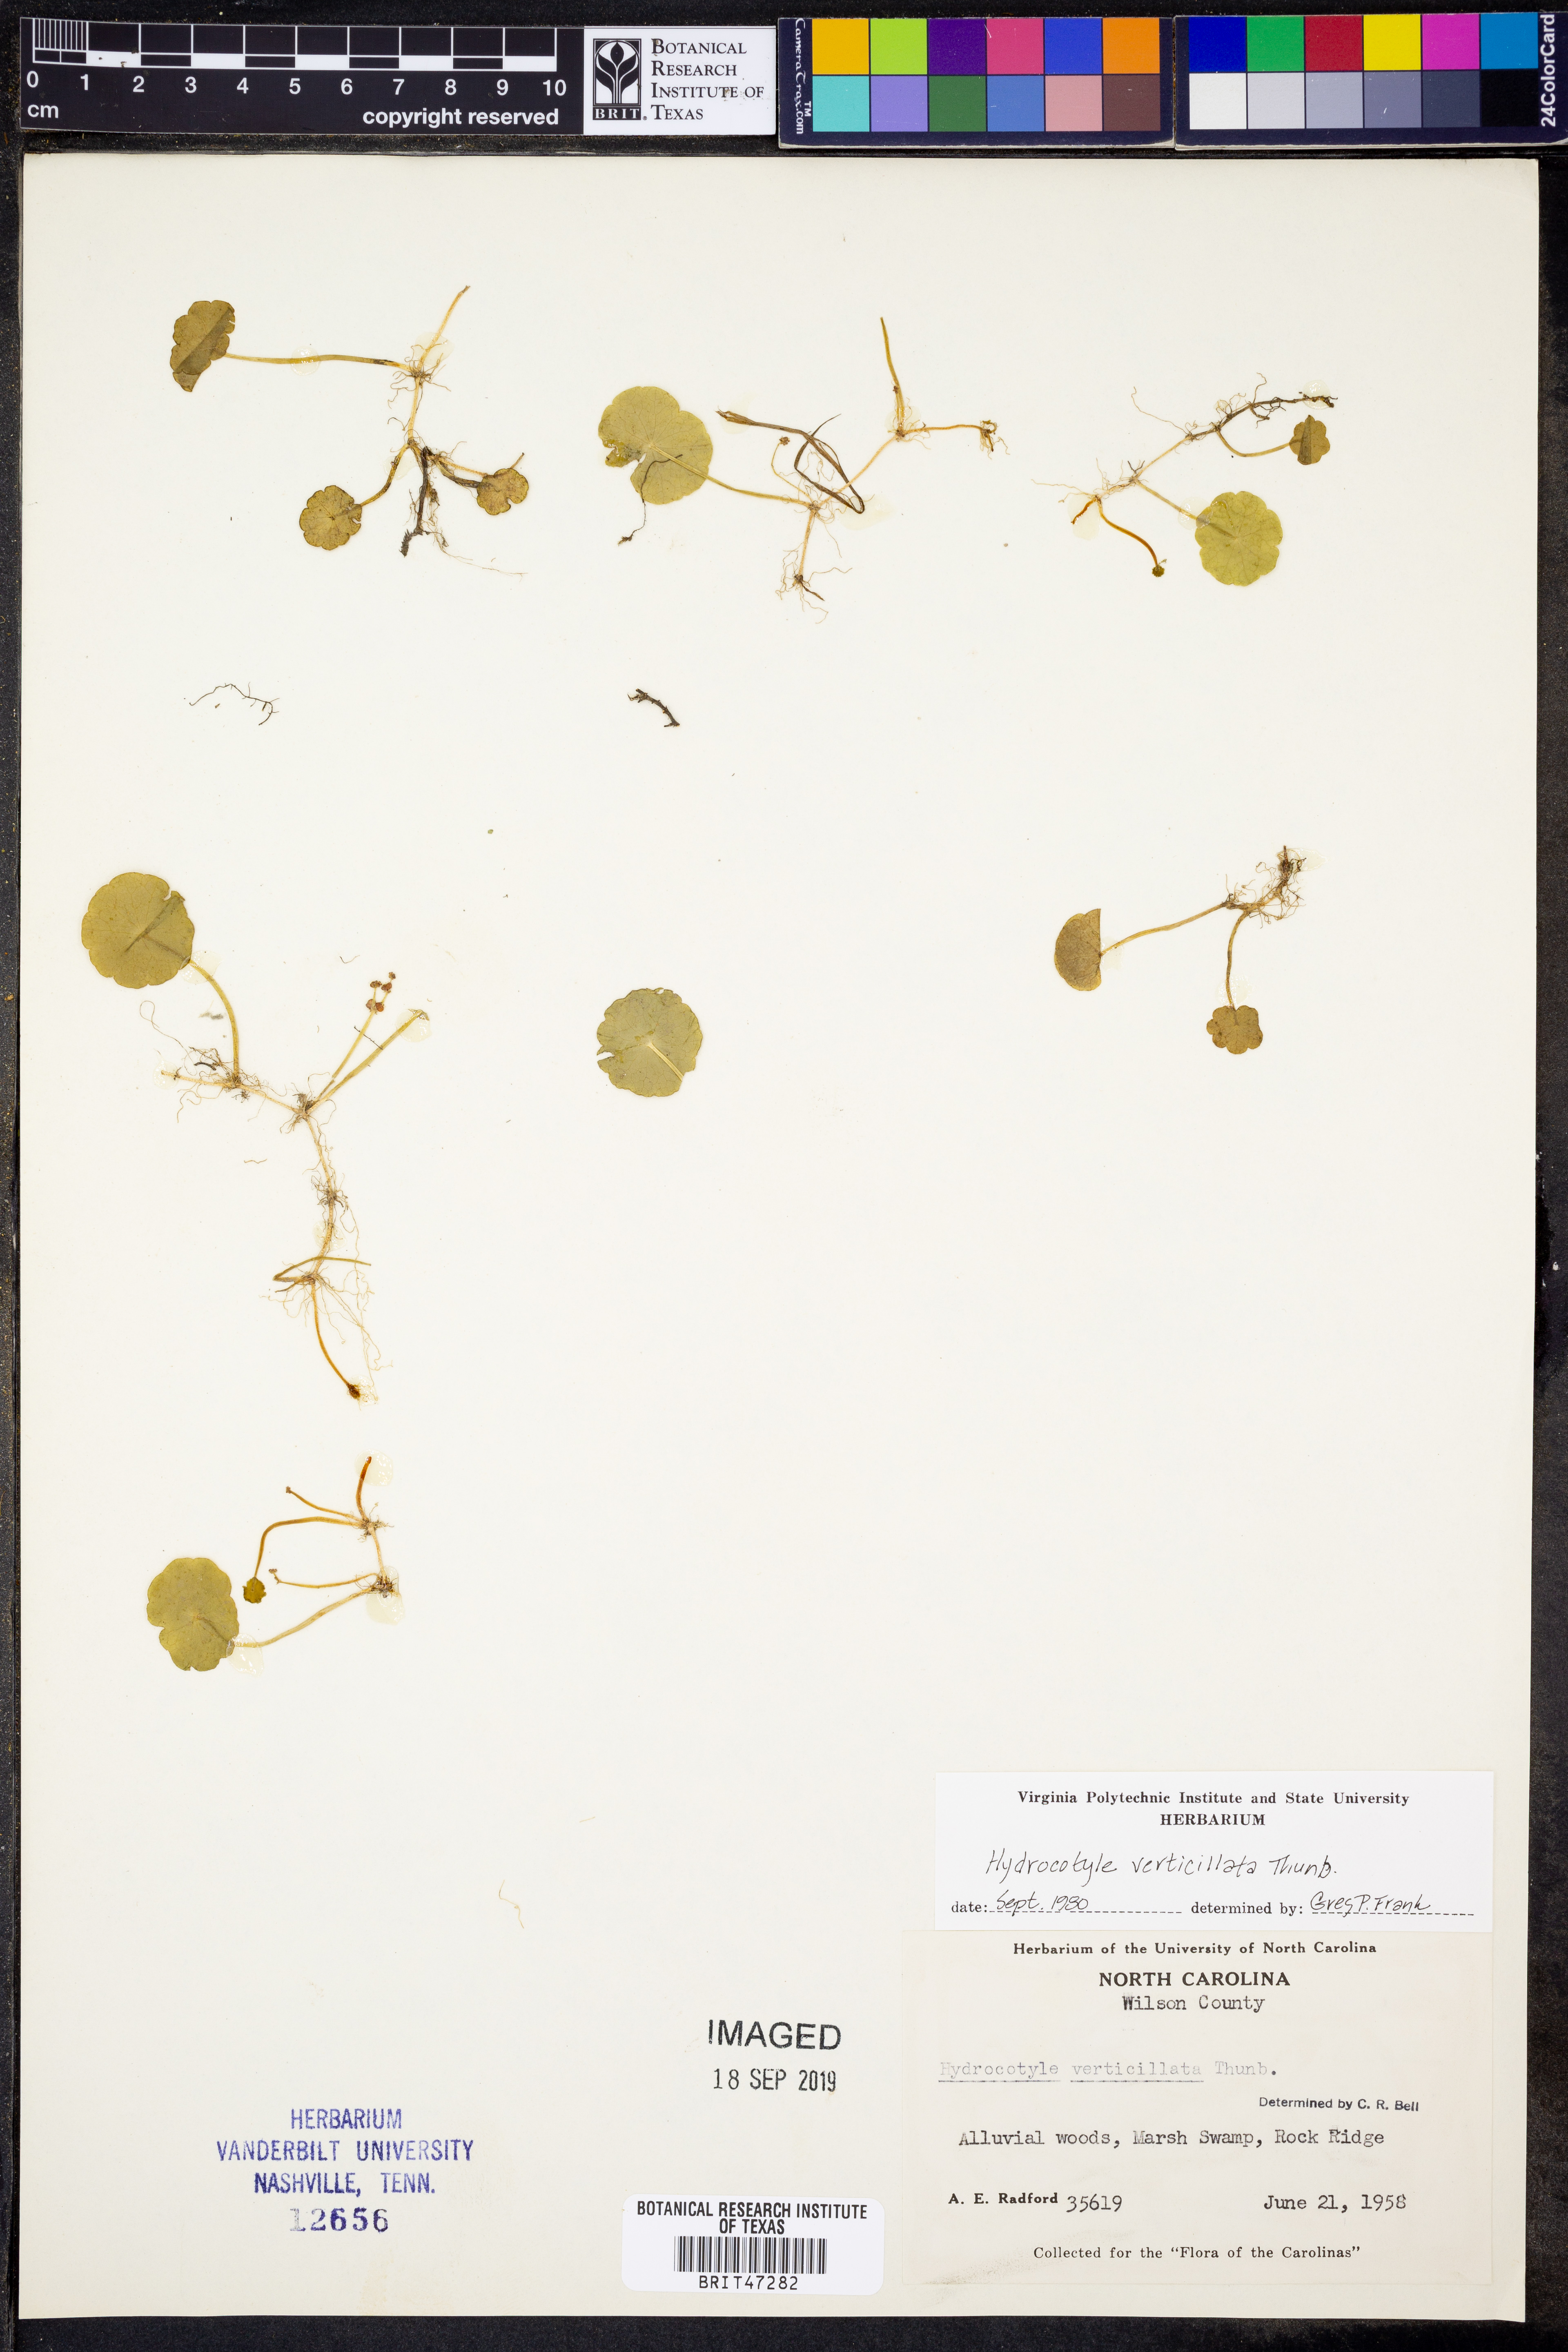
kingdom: Plantae
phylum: Tracheophyta
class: Magnoliopsida
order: Apiales
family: Araliaceae
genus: Hydrocotyle
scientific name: Hydrocotyle verticillata
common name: Whorled marshpennywort
